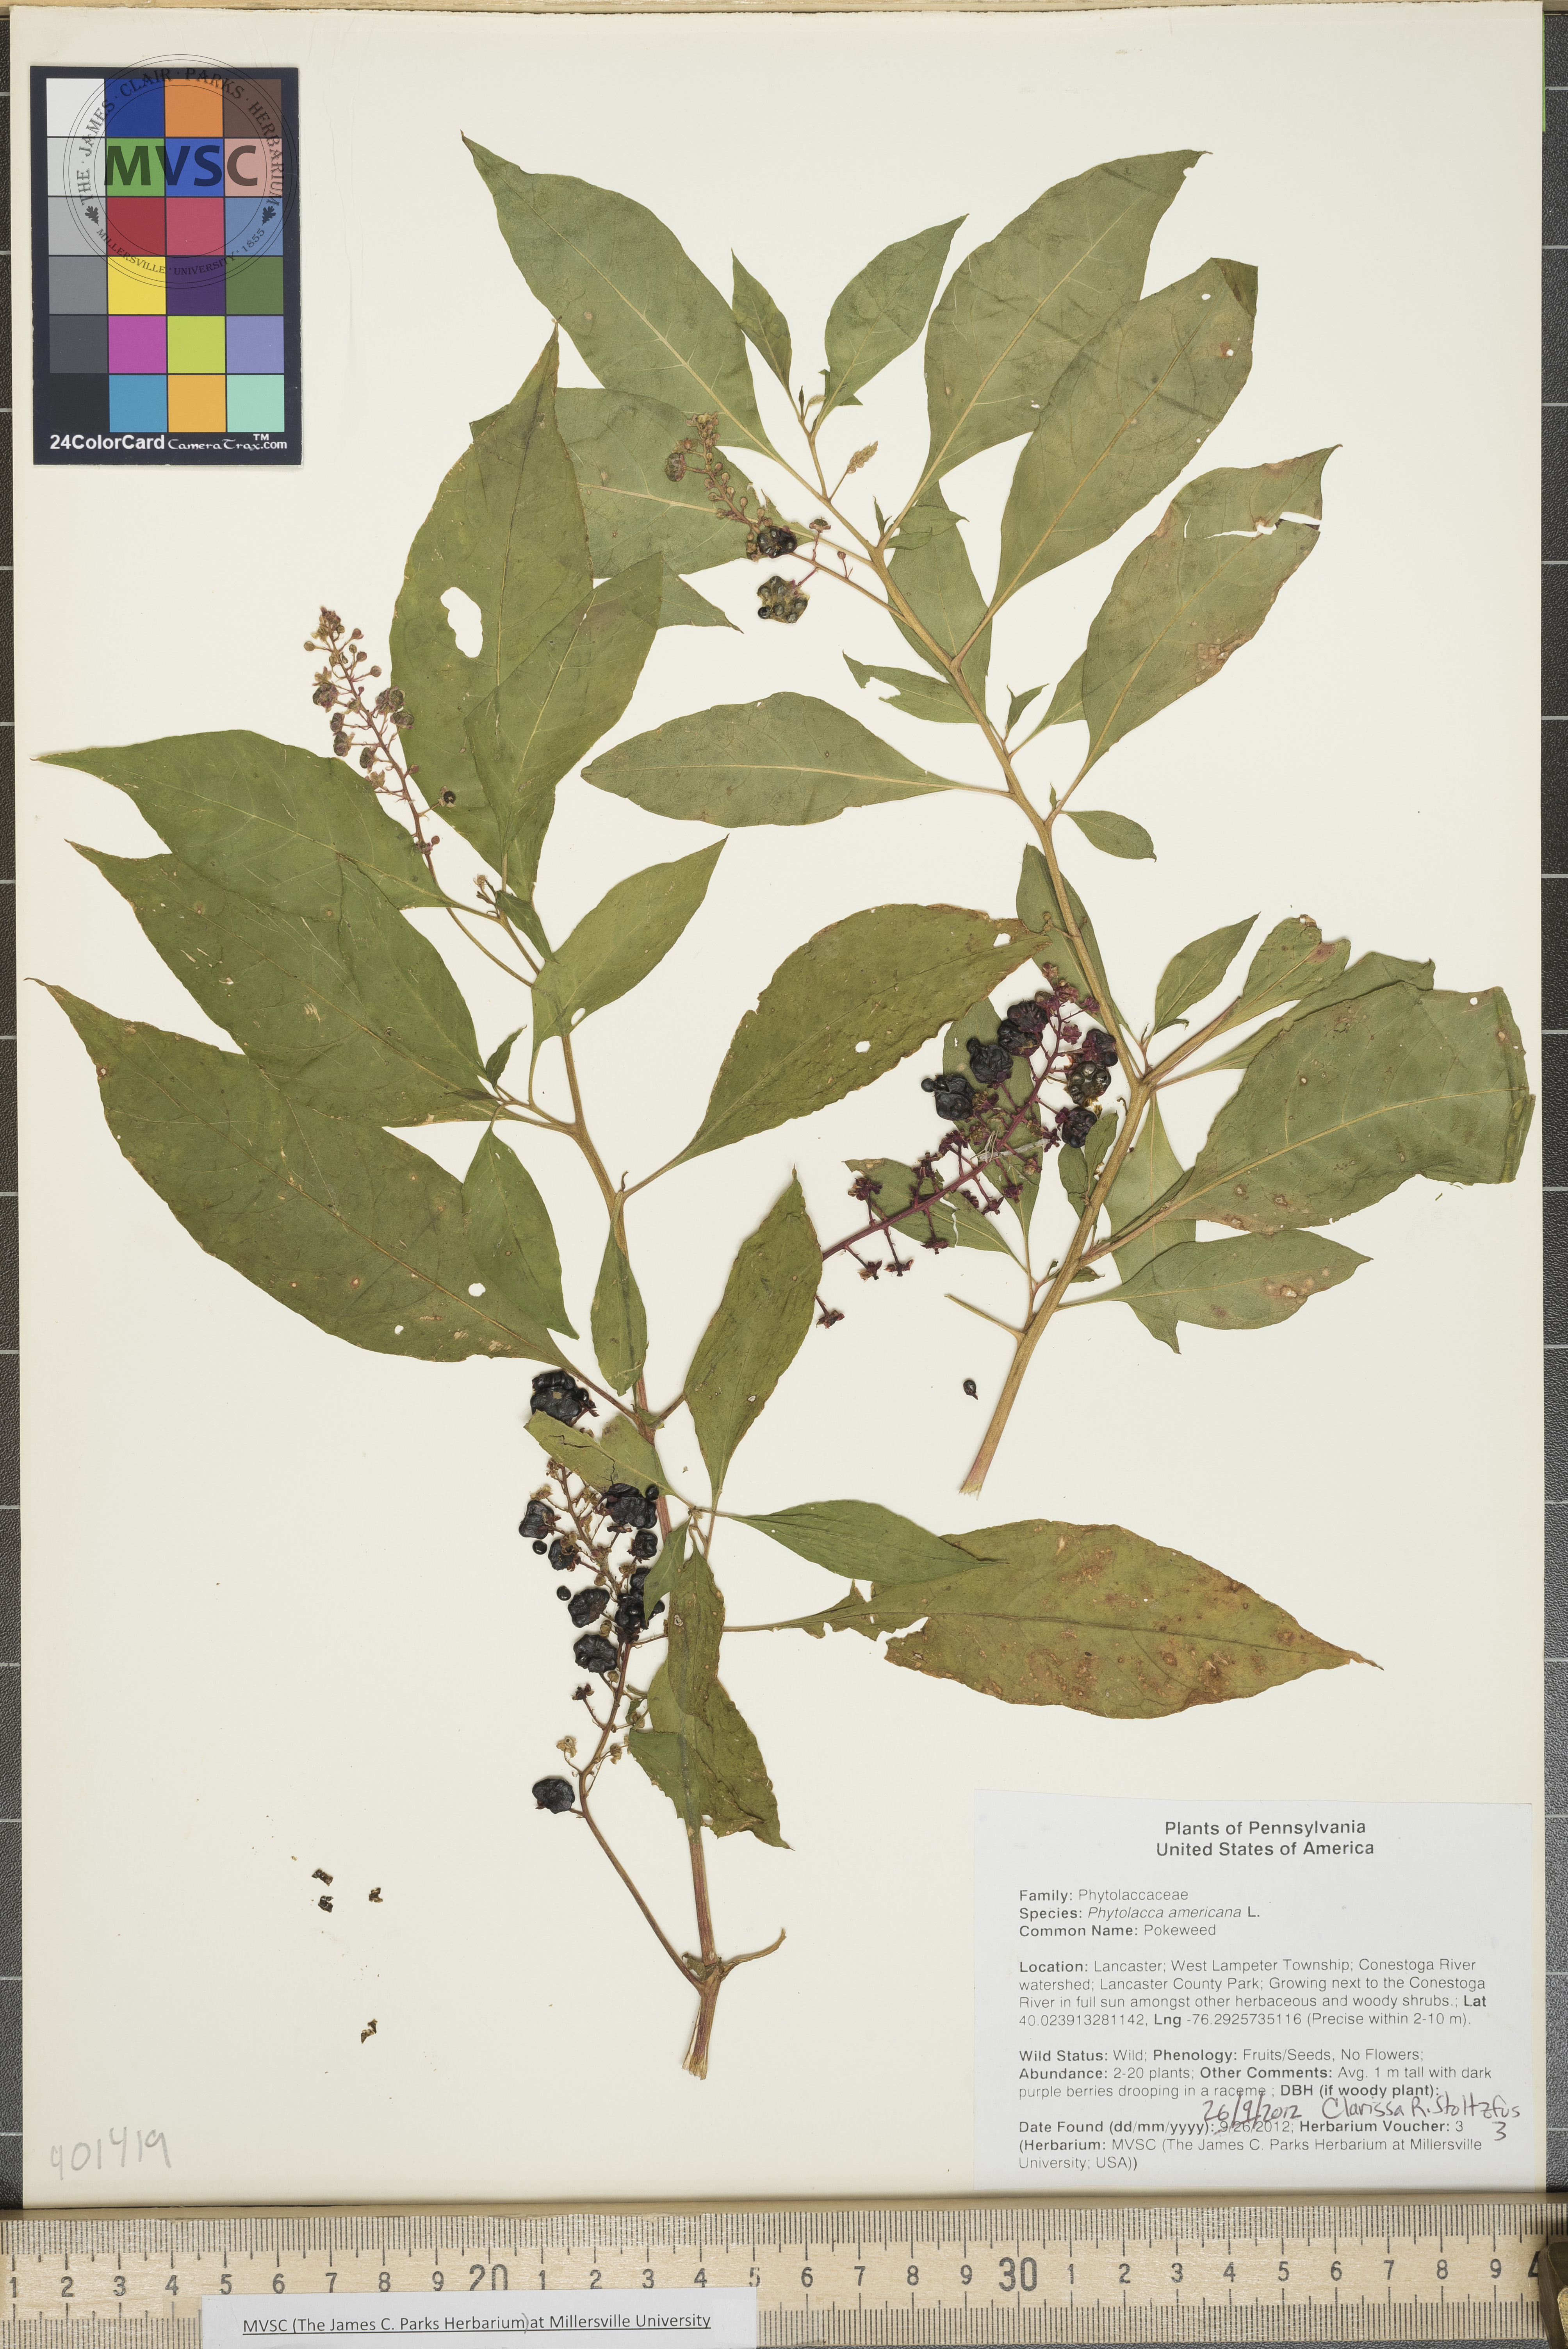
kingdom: Plantae
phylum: Tracheophyta
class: Magnoliopsida
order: Caryophyllales
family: Phytolaccaceae
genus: Phytolacca
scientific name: Phytolacca americana
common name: Pokeweed
